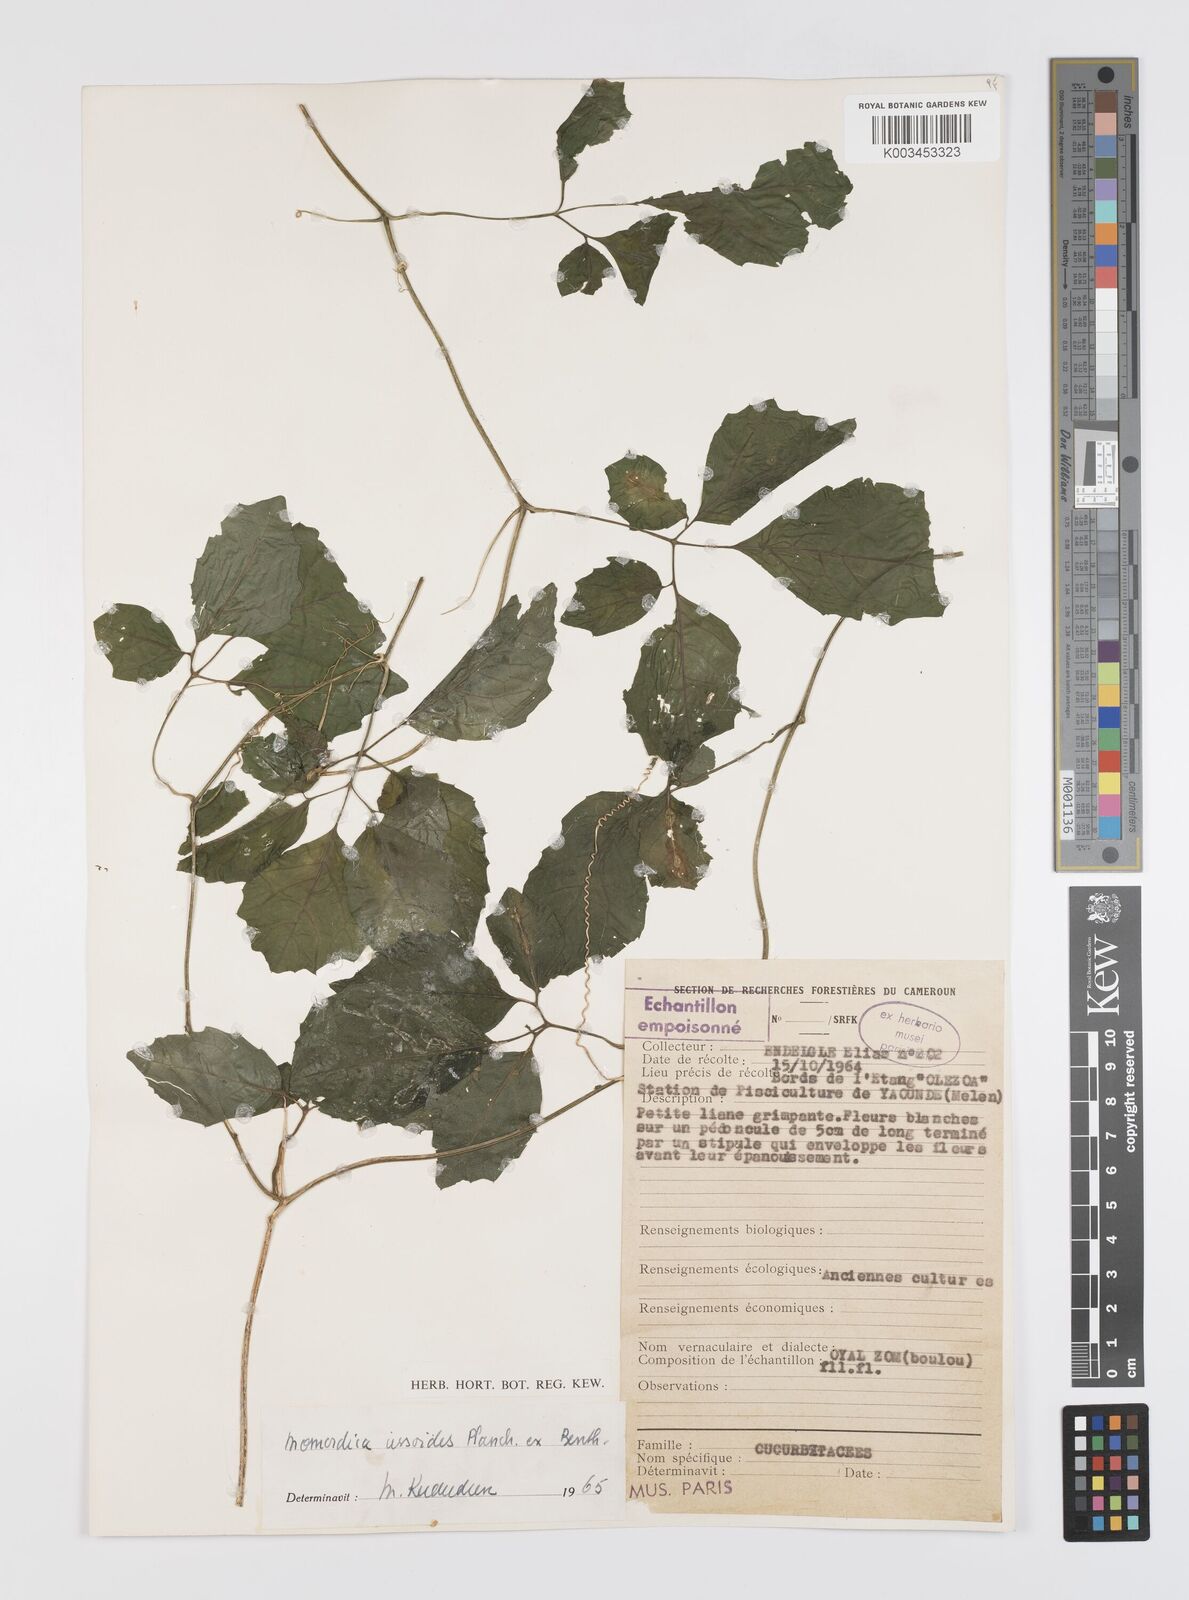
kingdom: Plantae
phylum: Tracheophyta
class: Magnoliopsida
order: Cucurbitales
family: Cucurbitaceae
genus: Momordica
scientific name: Momordica cissoides
